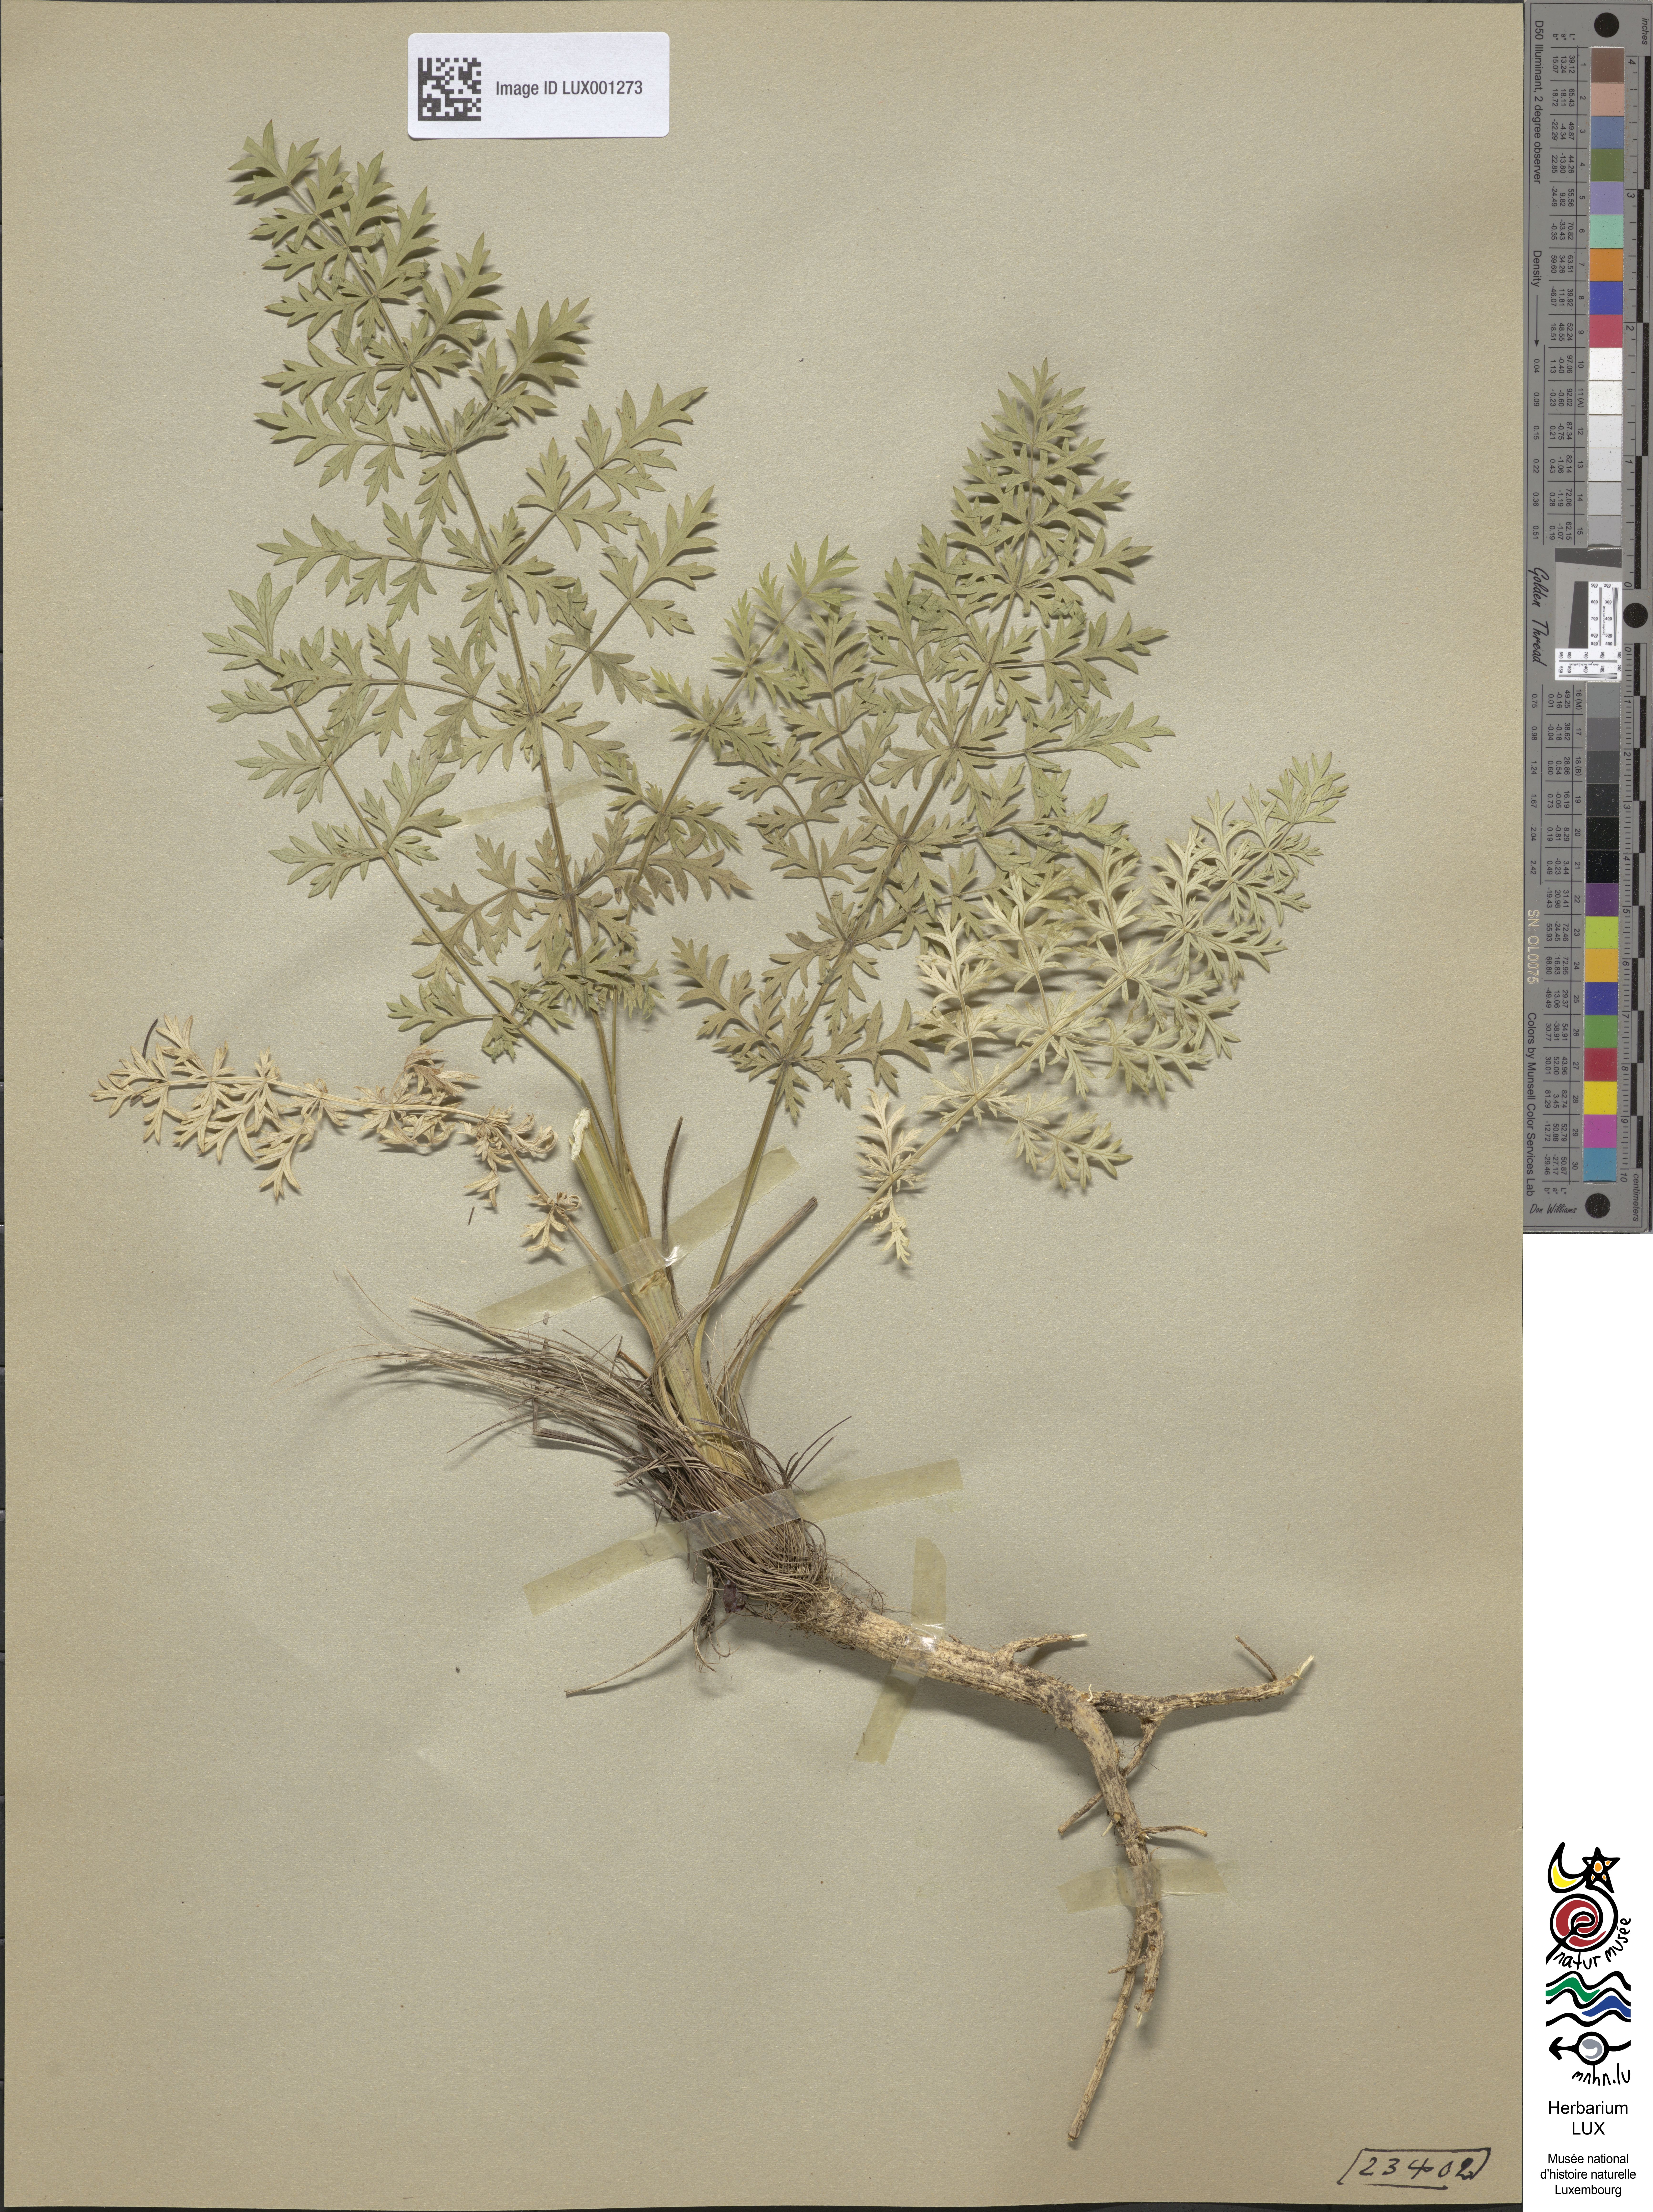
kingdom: Plantae
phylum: Tracheophyta
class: Magnoliopsida
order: Apiales
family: Apiaceae
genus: Seseli
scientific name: Seseli libanotis
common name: Mooncarrot
